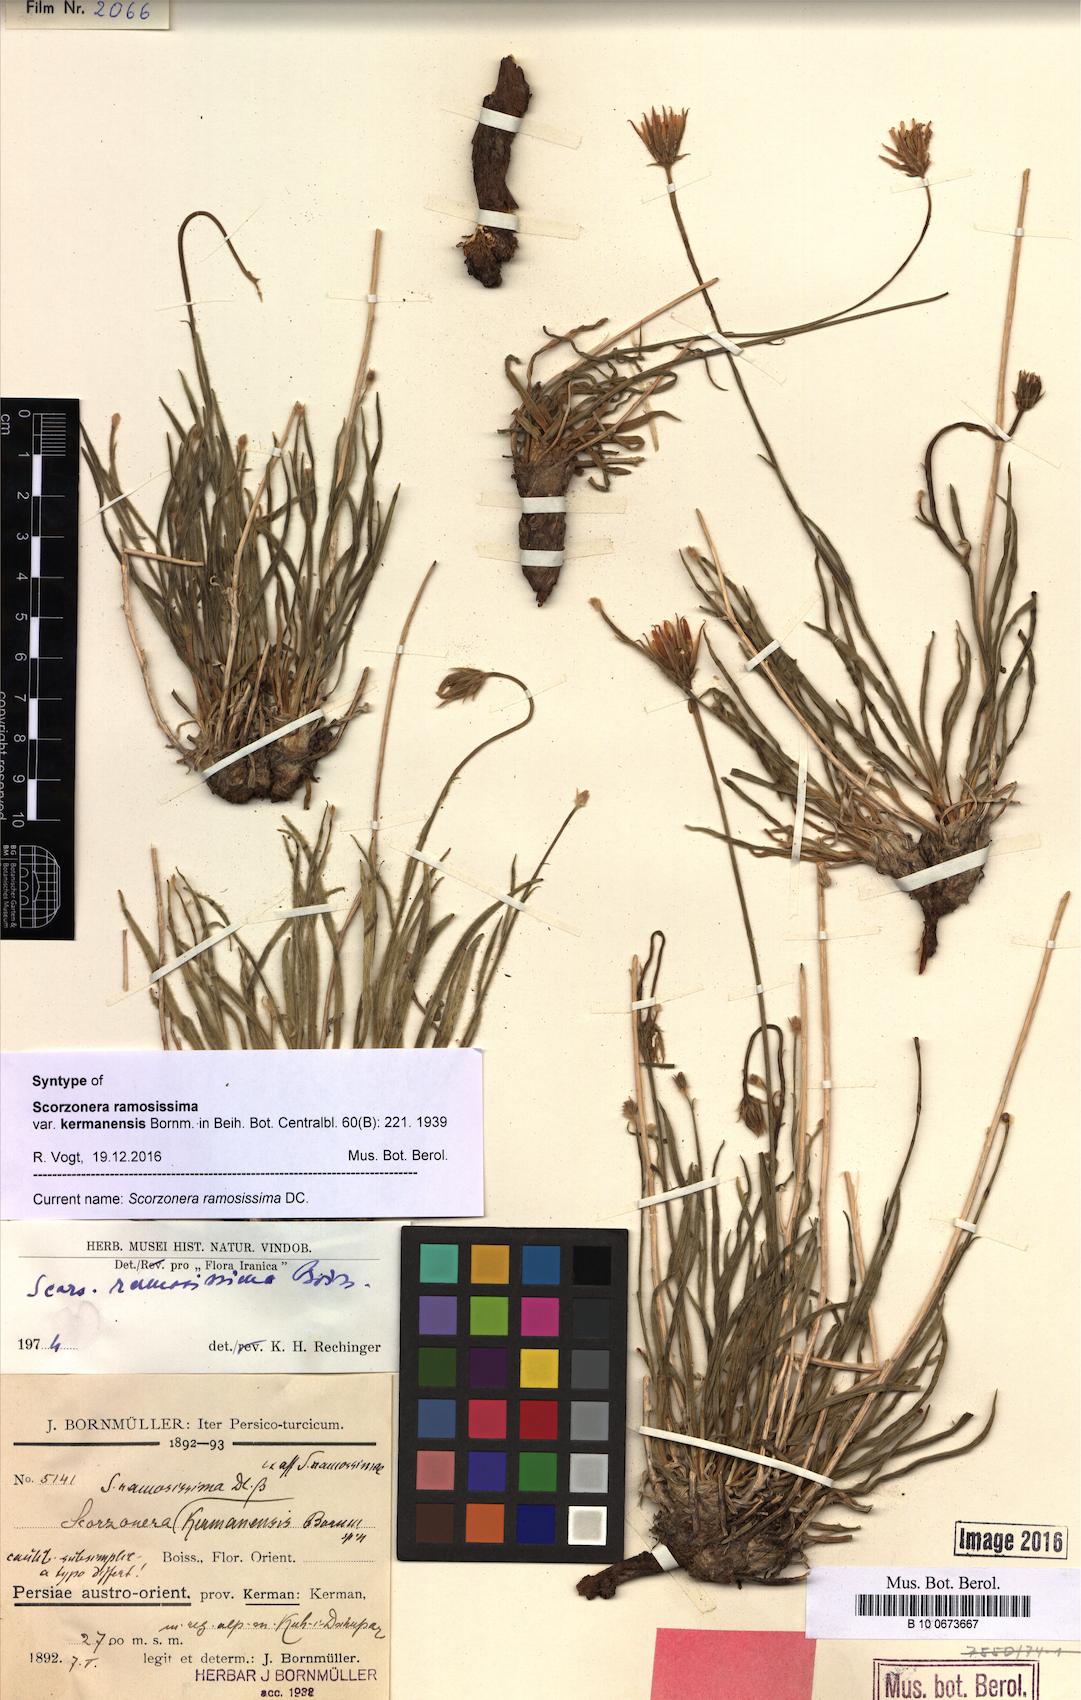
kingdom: Plantae
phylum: Tracheophyta
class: Magnoliopsida
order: Asterales
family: Asteraceae
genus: Gelasia
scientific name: Gelasia ramosissima
